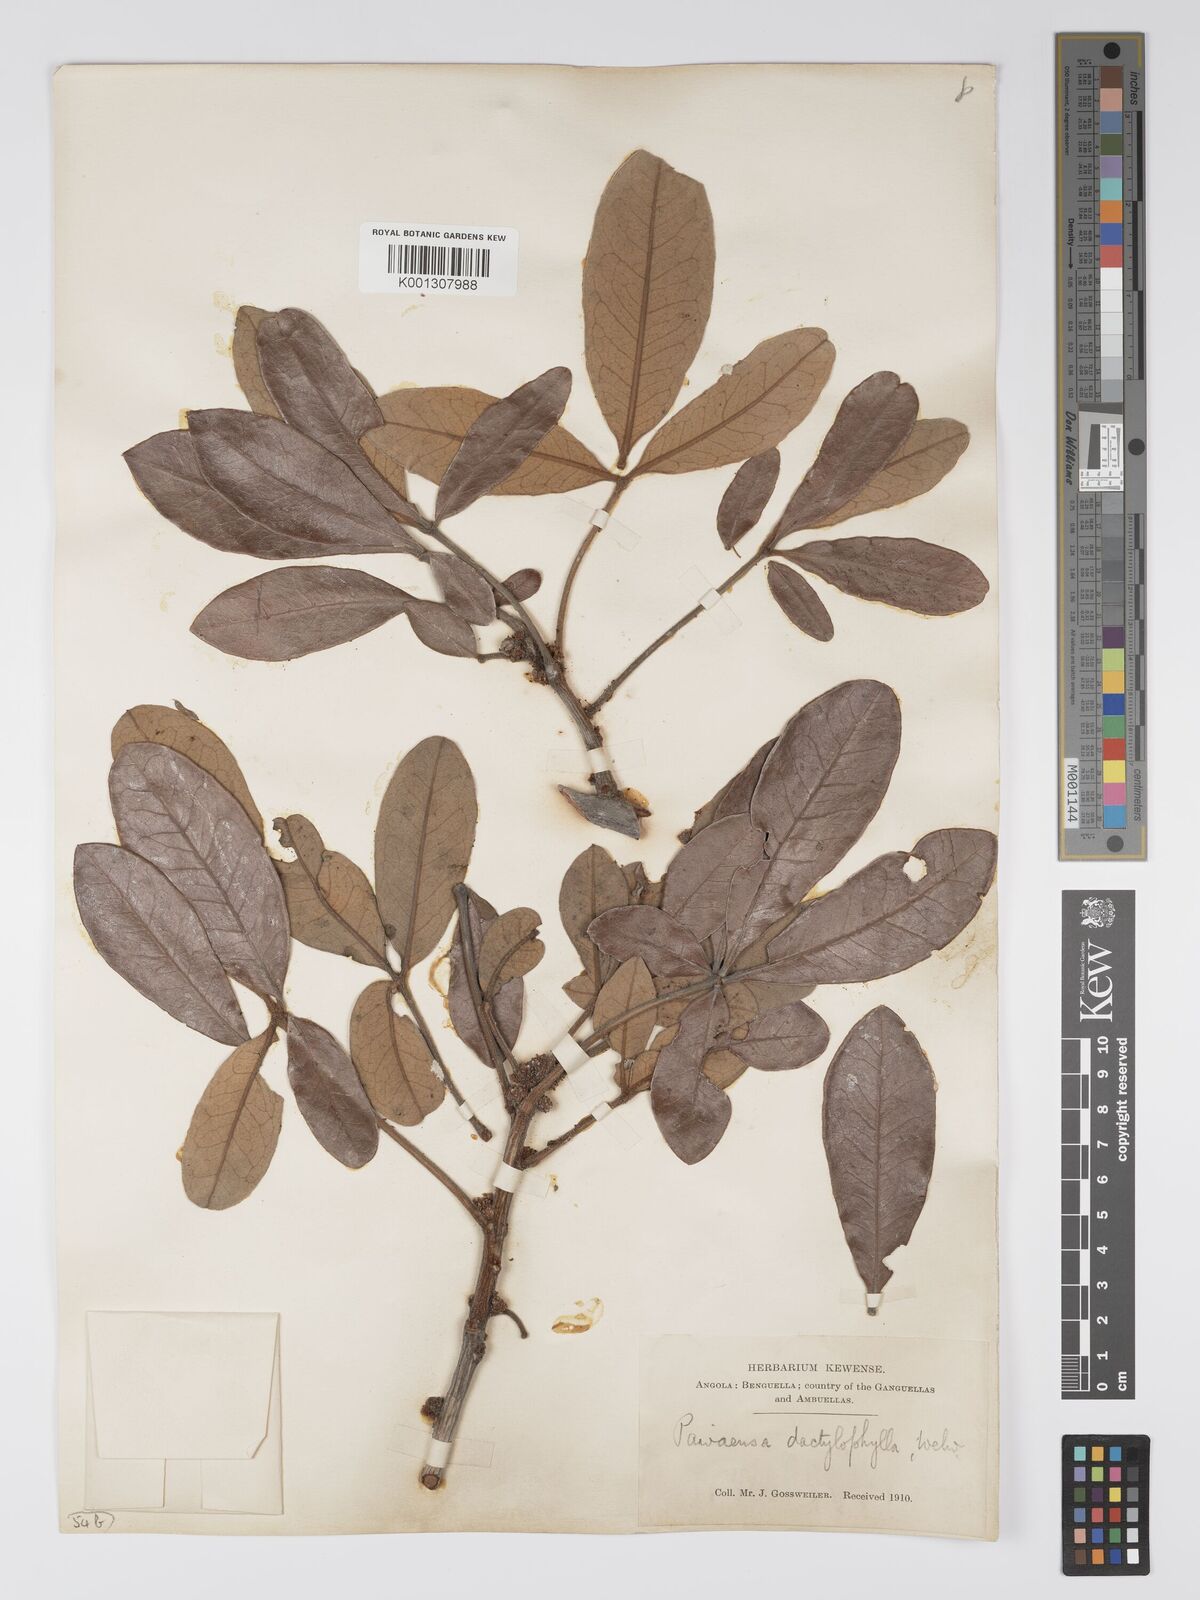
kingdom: Plantae
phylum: Tracheophyta
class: Magnoliopsida
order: Malpighiales
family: Picrodendraceae
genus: Oldfieldia
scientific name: Oldfieldia dactylophylla
